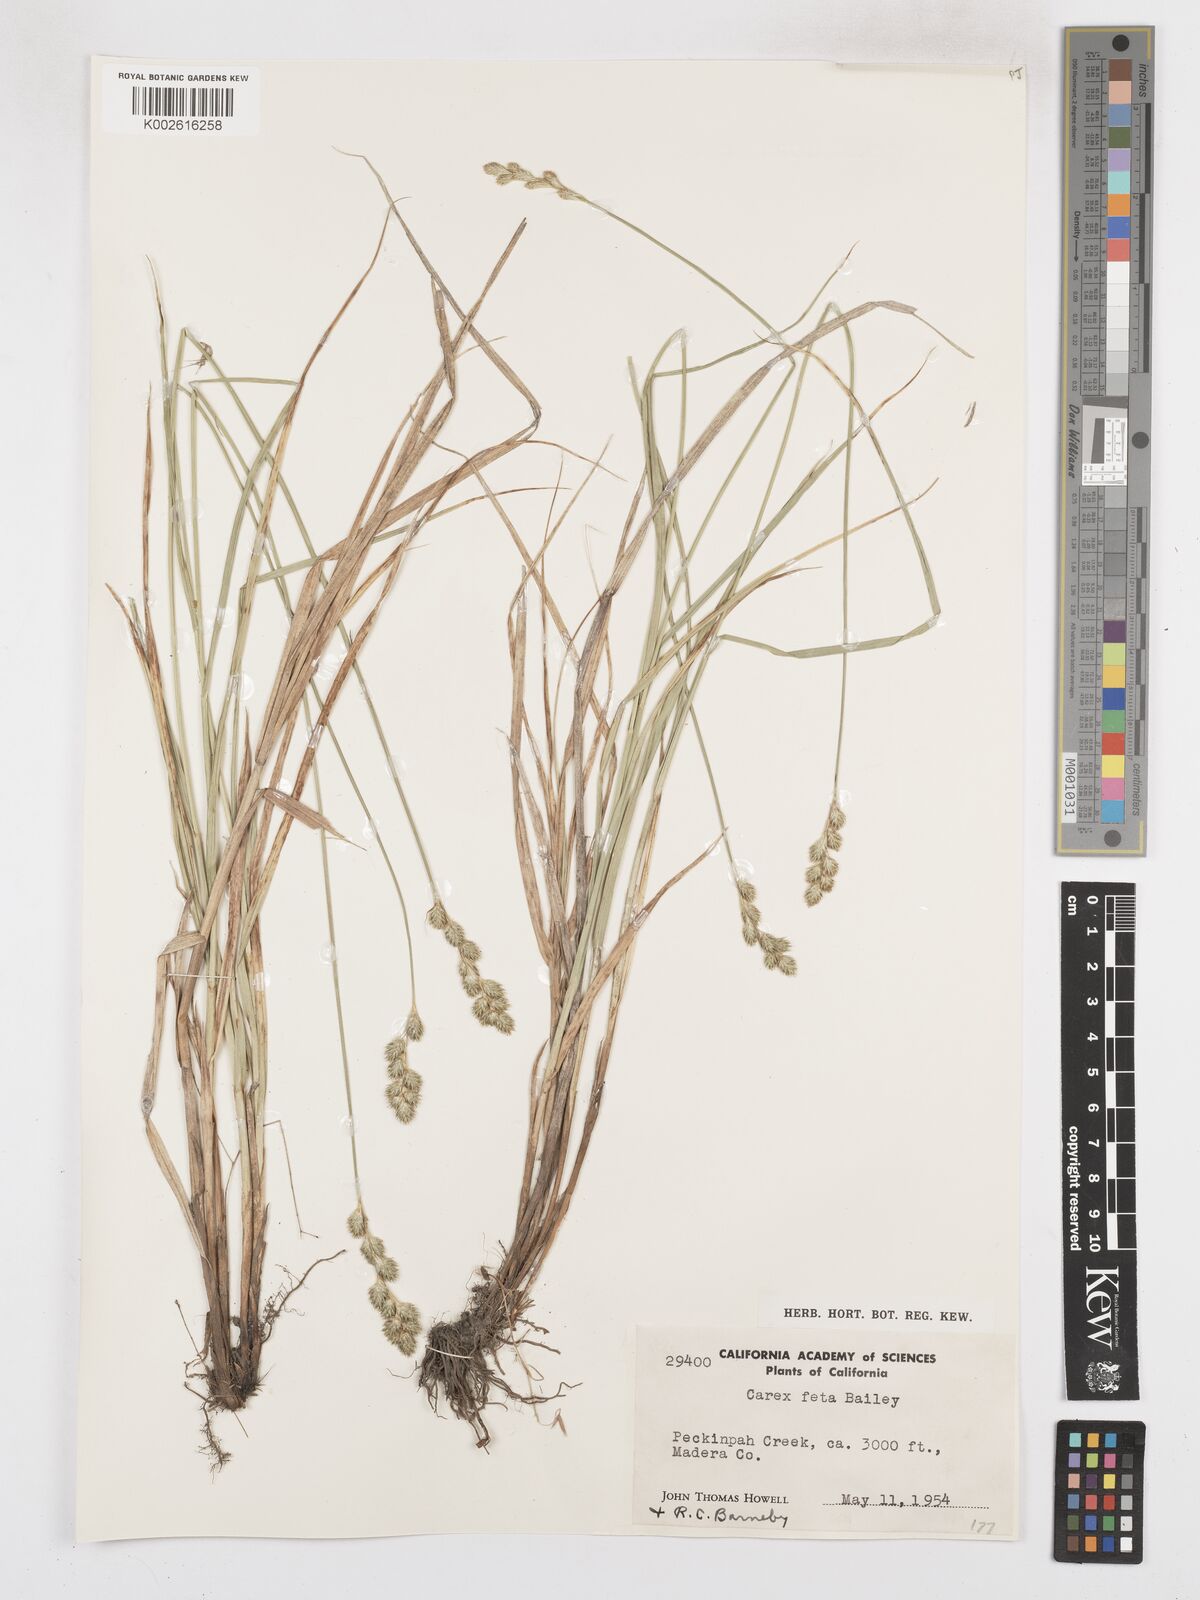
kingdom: Plantae
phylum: Tracheophyta
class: Liliopsida
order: Poales
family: Cyperaceae
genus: Carex
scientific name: Carex feta
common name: Green-sheathed sedge
